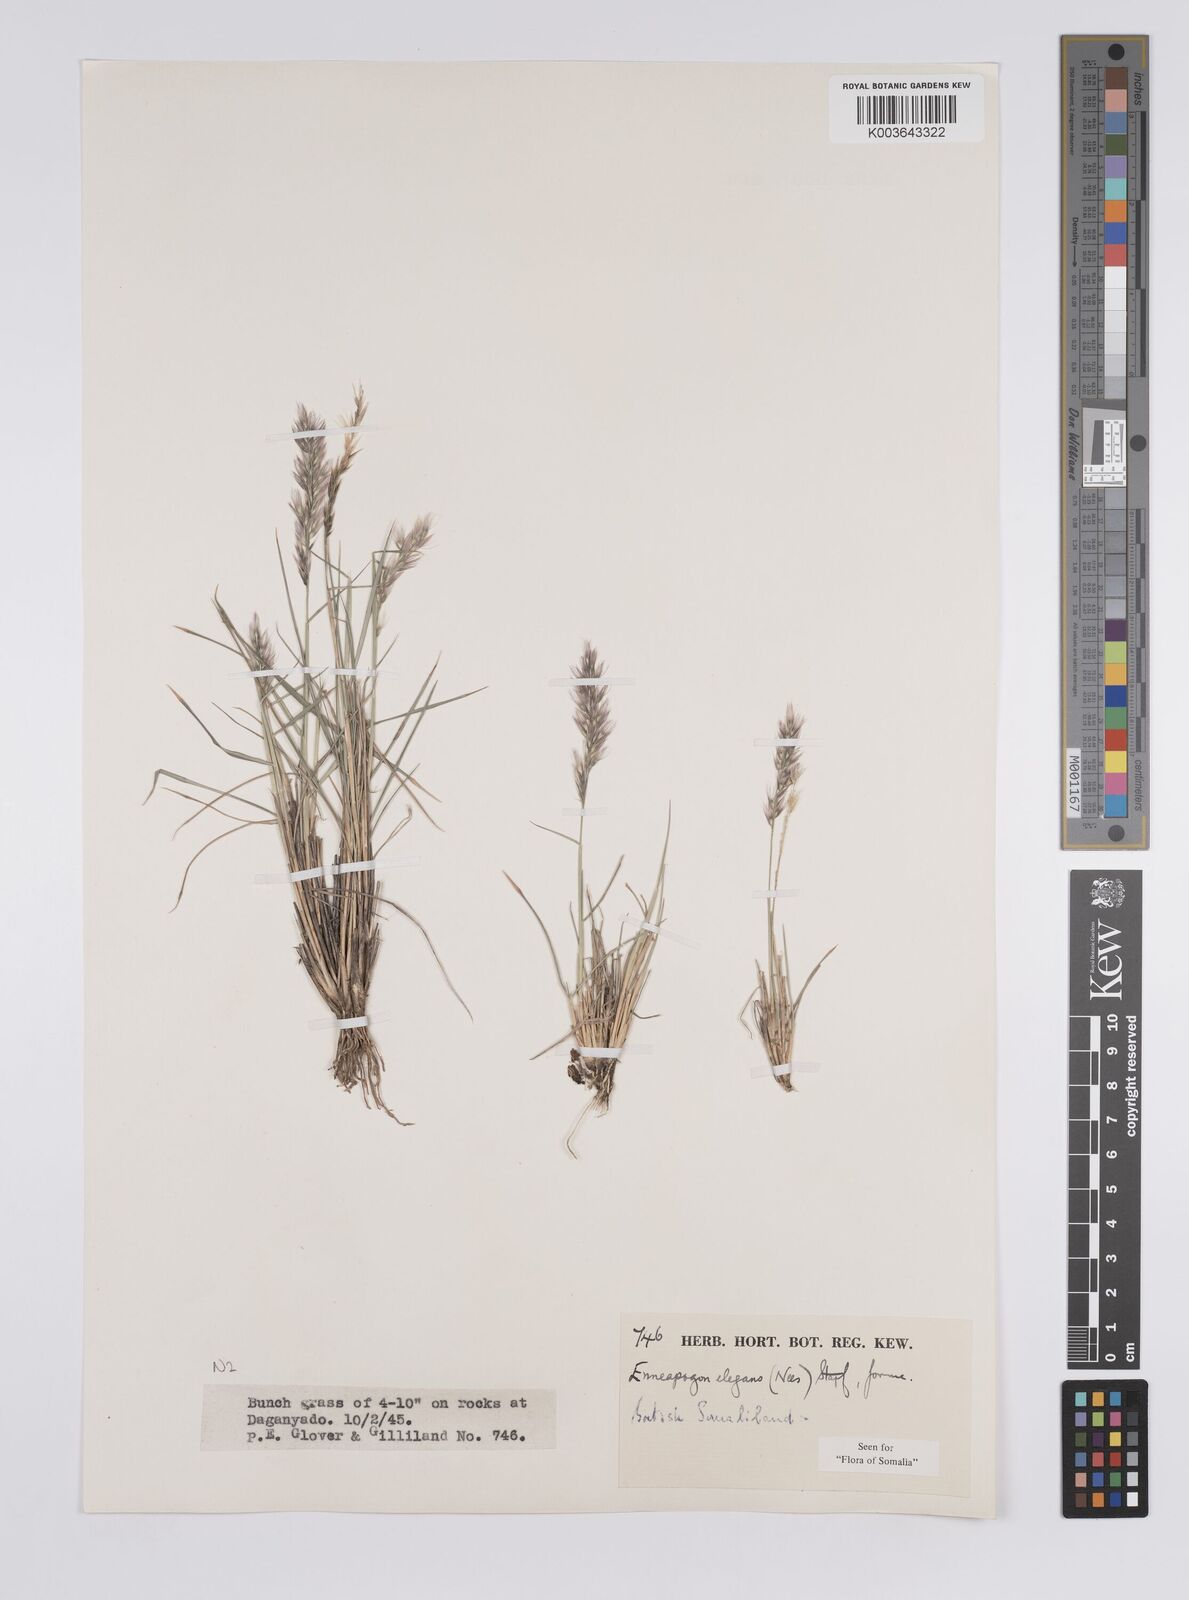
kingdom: Plantae
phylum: Tracheophyta
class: Liliopsida
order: Poales
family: Poaceae
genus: Enneapogon
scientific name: Enneapogon persicus
